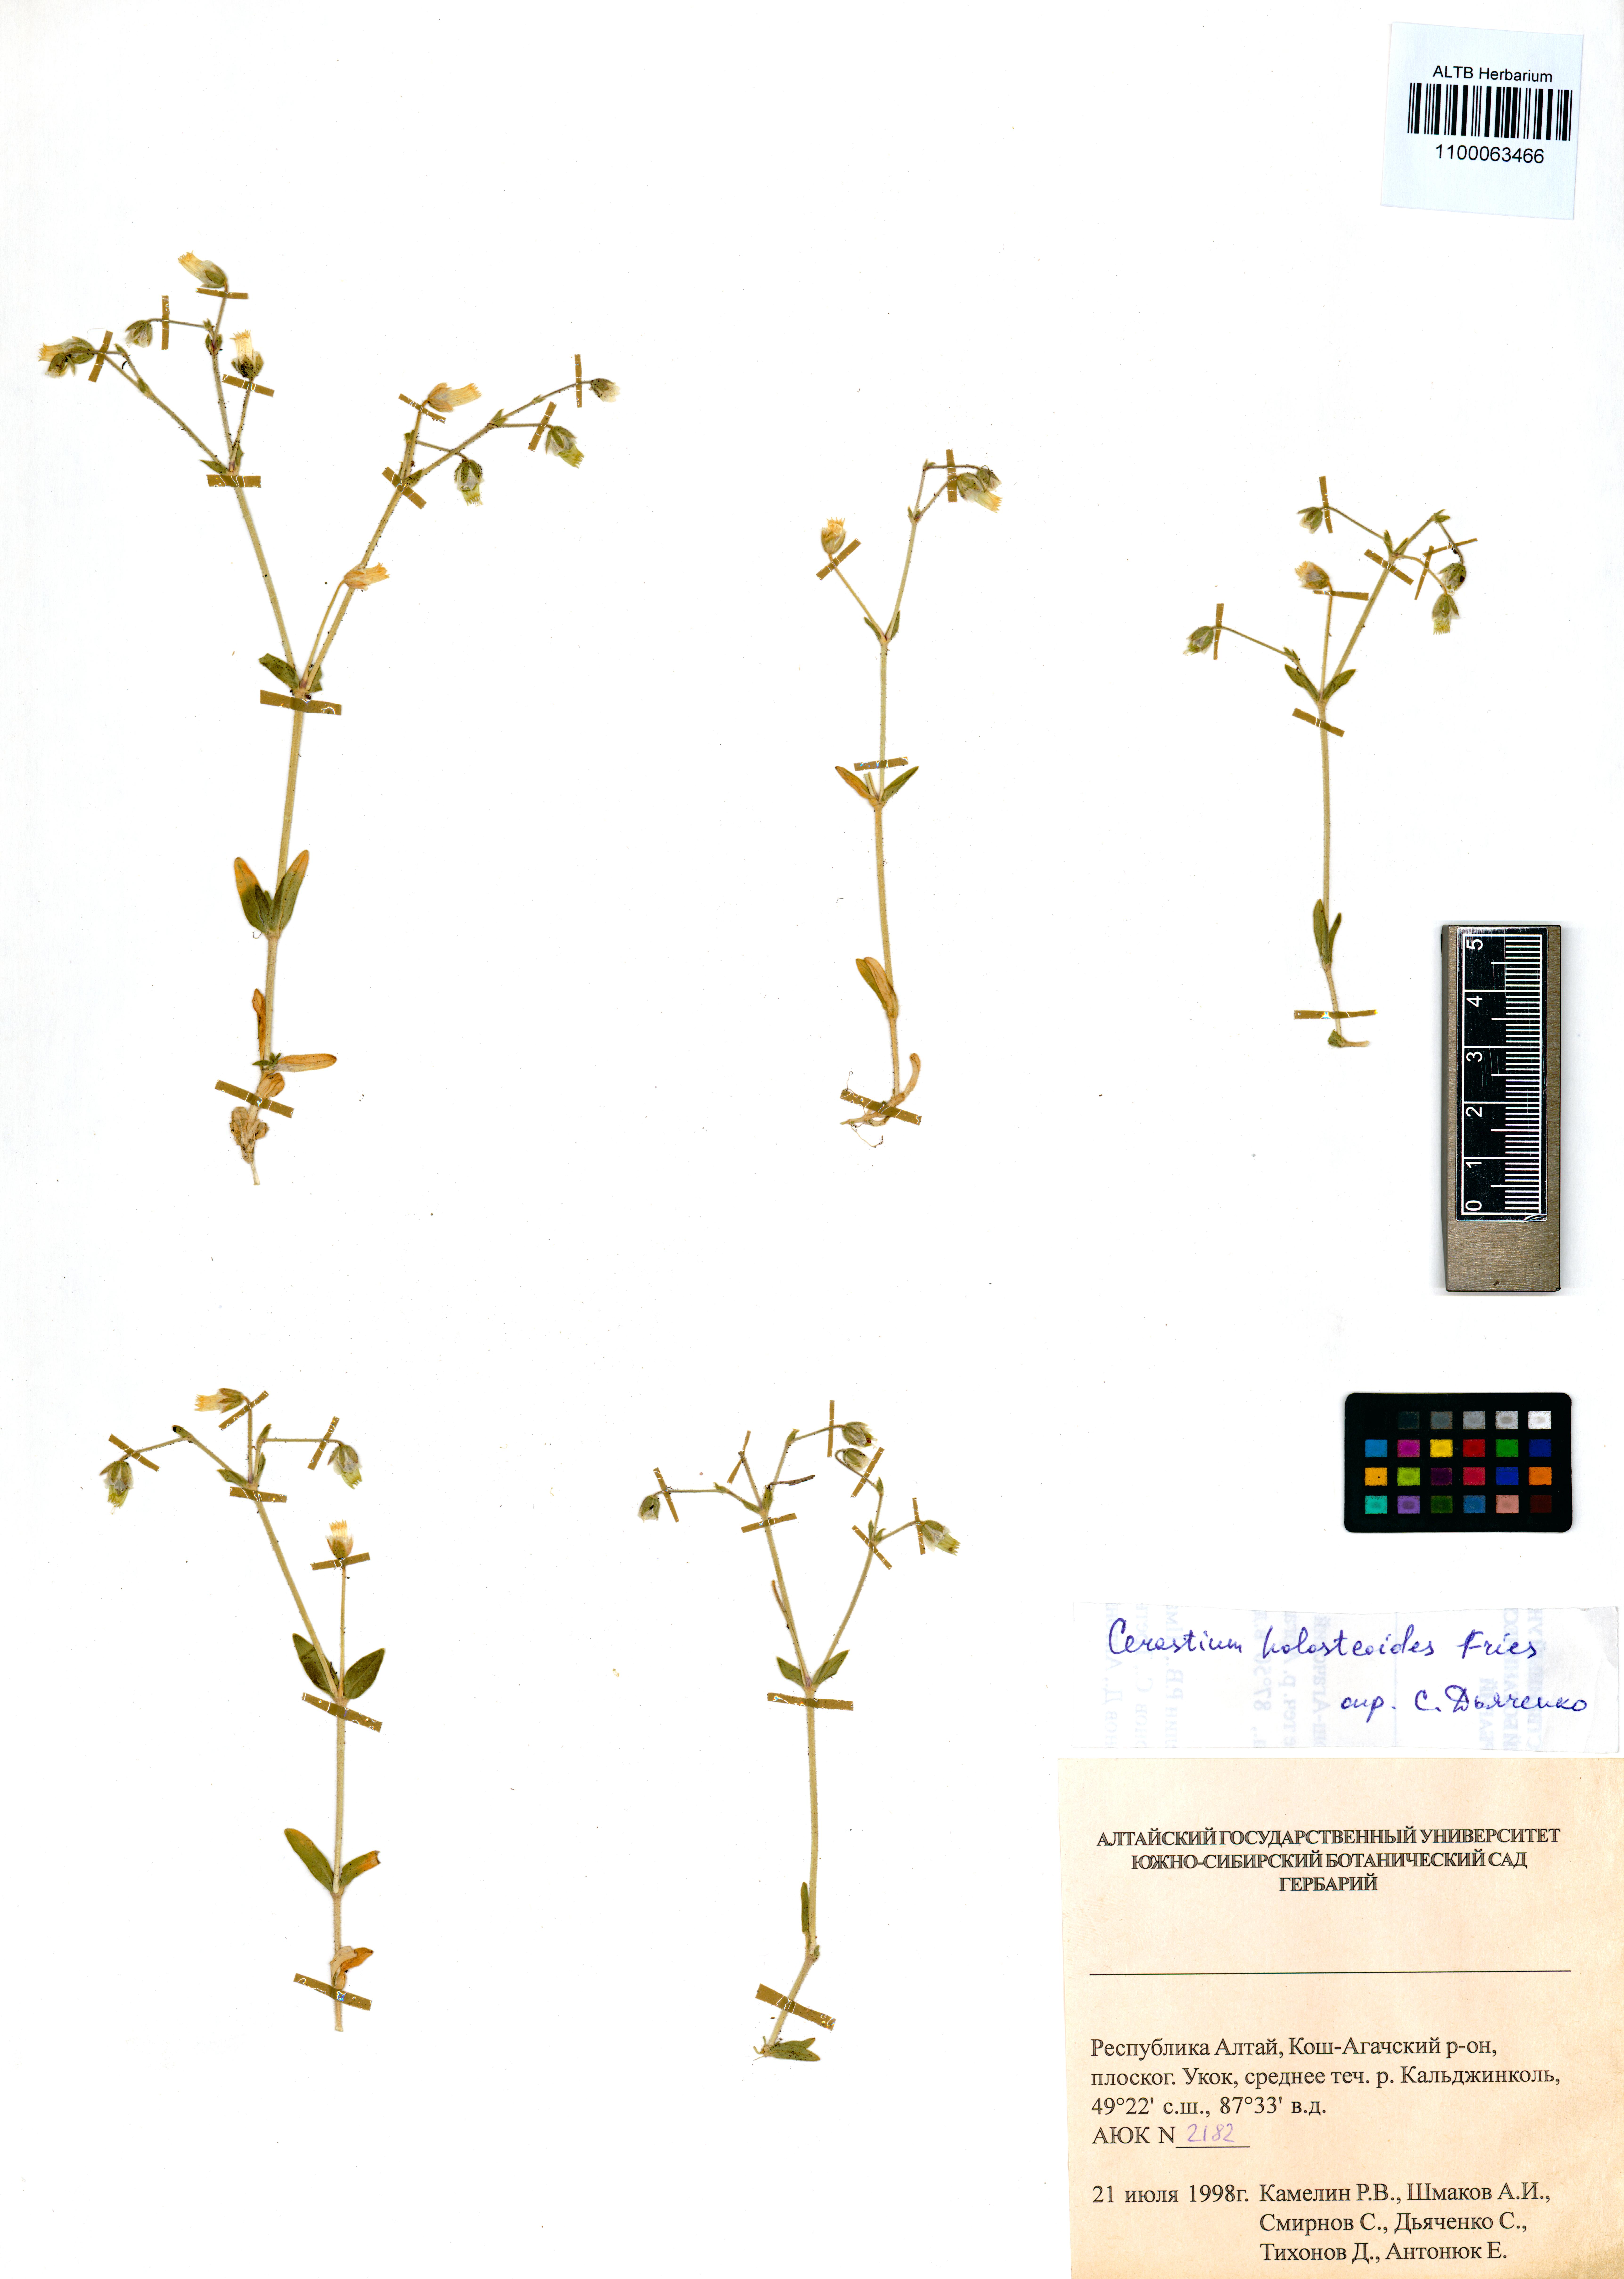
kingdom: Plantae
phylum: Tracheophyta
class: Magnoliopsida
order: Caryophyllales
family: Caryophyllaceae
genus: Cerastium
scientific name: Cerastium holosteoides
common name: Big chickweed
